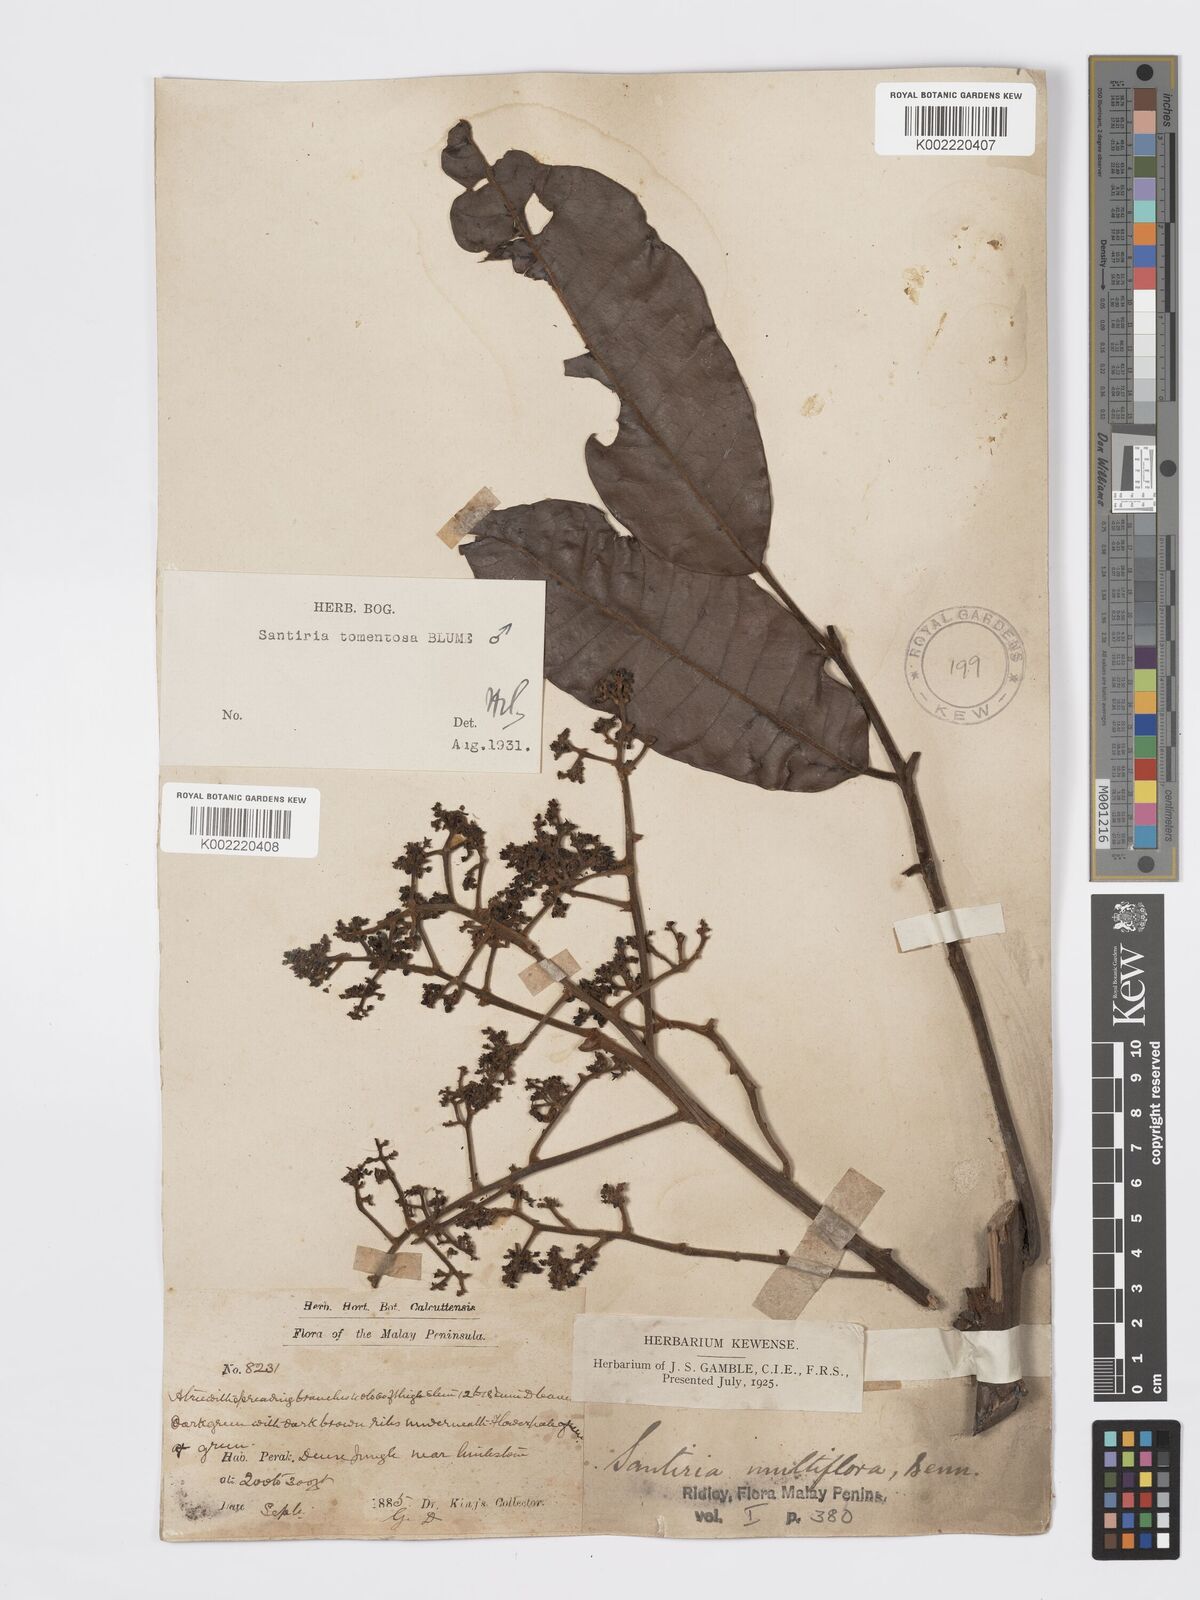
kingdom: Plantae
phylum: Tracheophyta
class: Magnoliopsida
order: Sapindales
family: Burseraceae
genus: Santiria
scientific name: Santiria tomentosa
